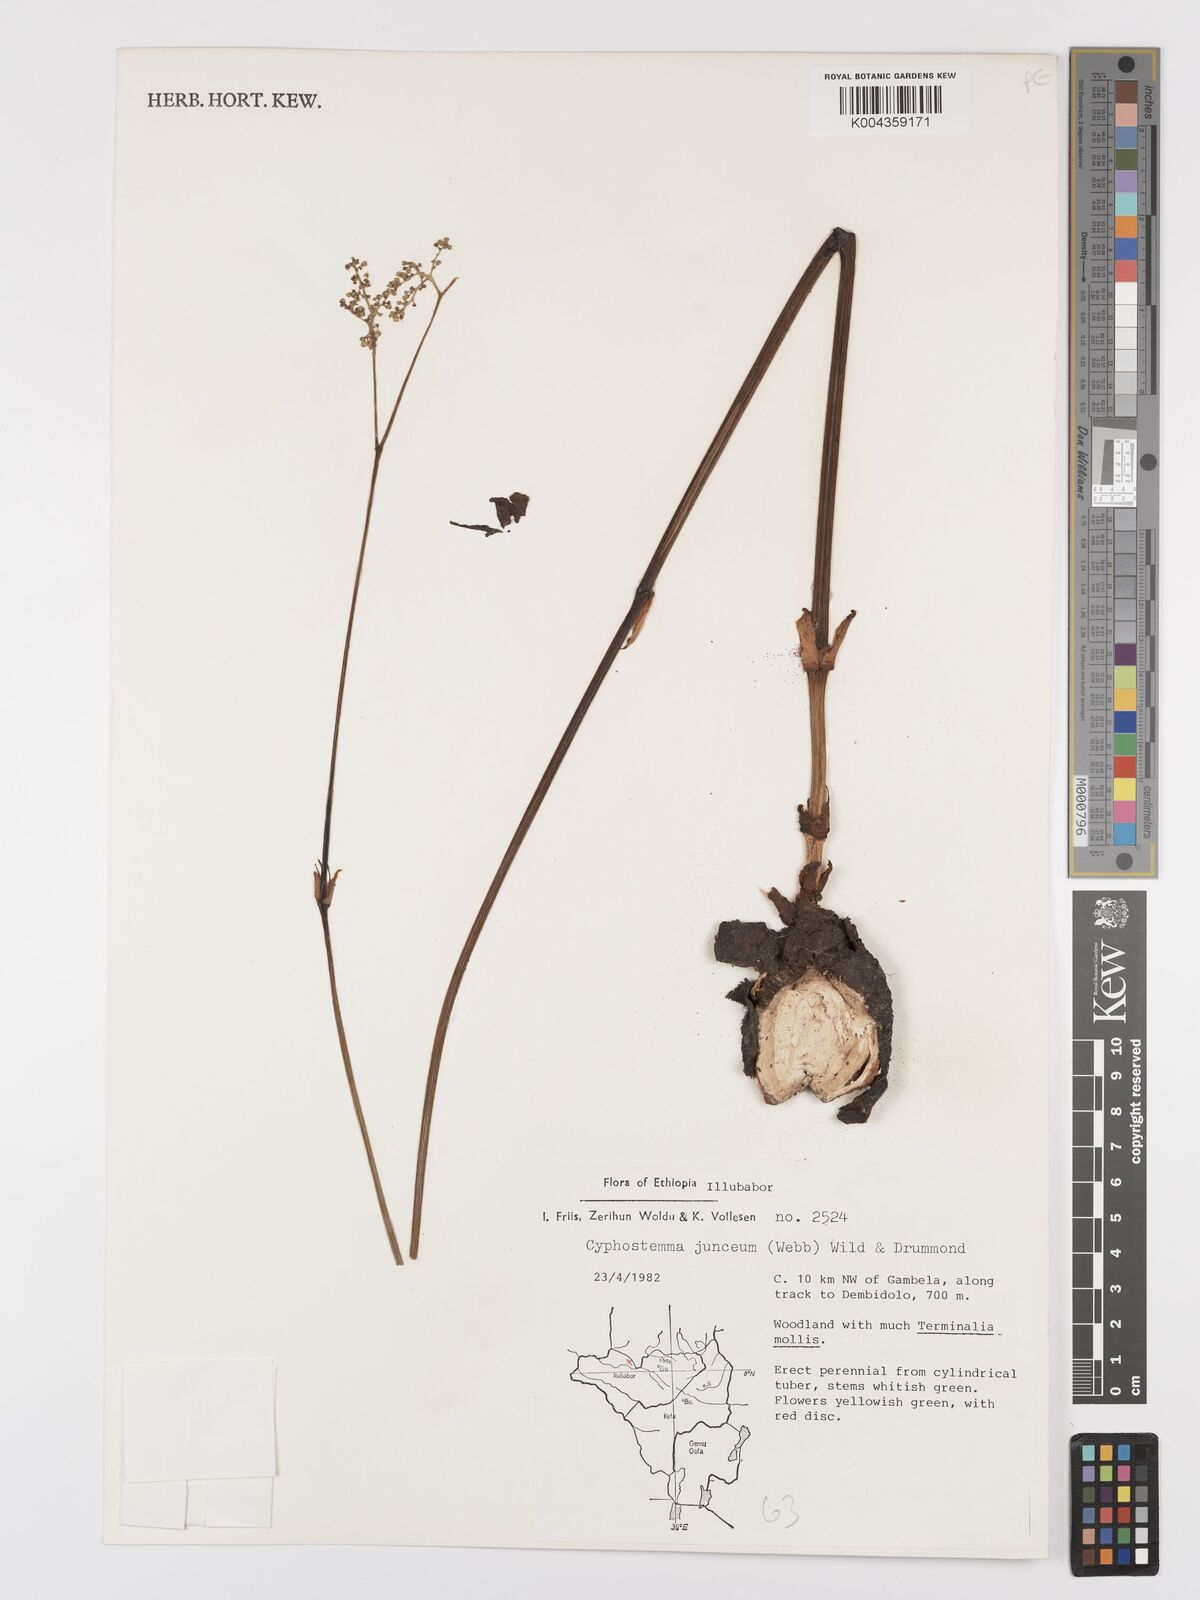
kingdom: Plantae
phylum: Tracheophyta
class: Magnoliopsida
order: Vitales
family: Vitaceae
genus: Cyphostemma
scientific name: Cyphostemma junceum
